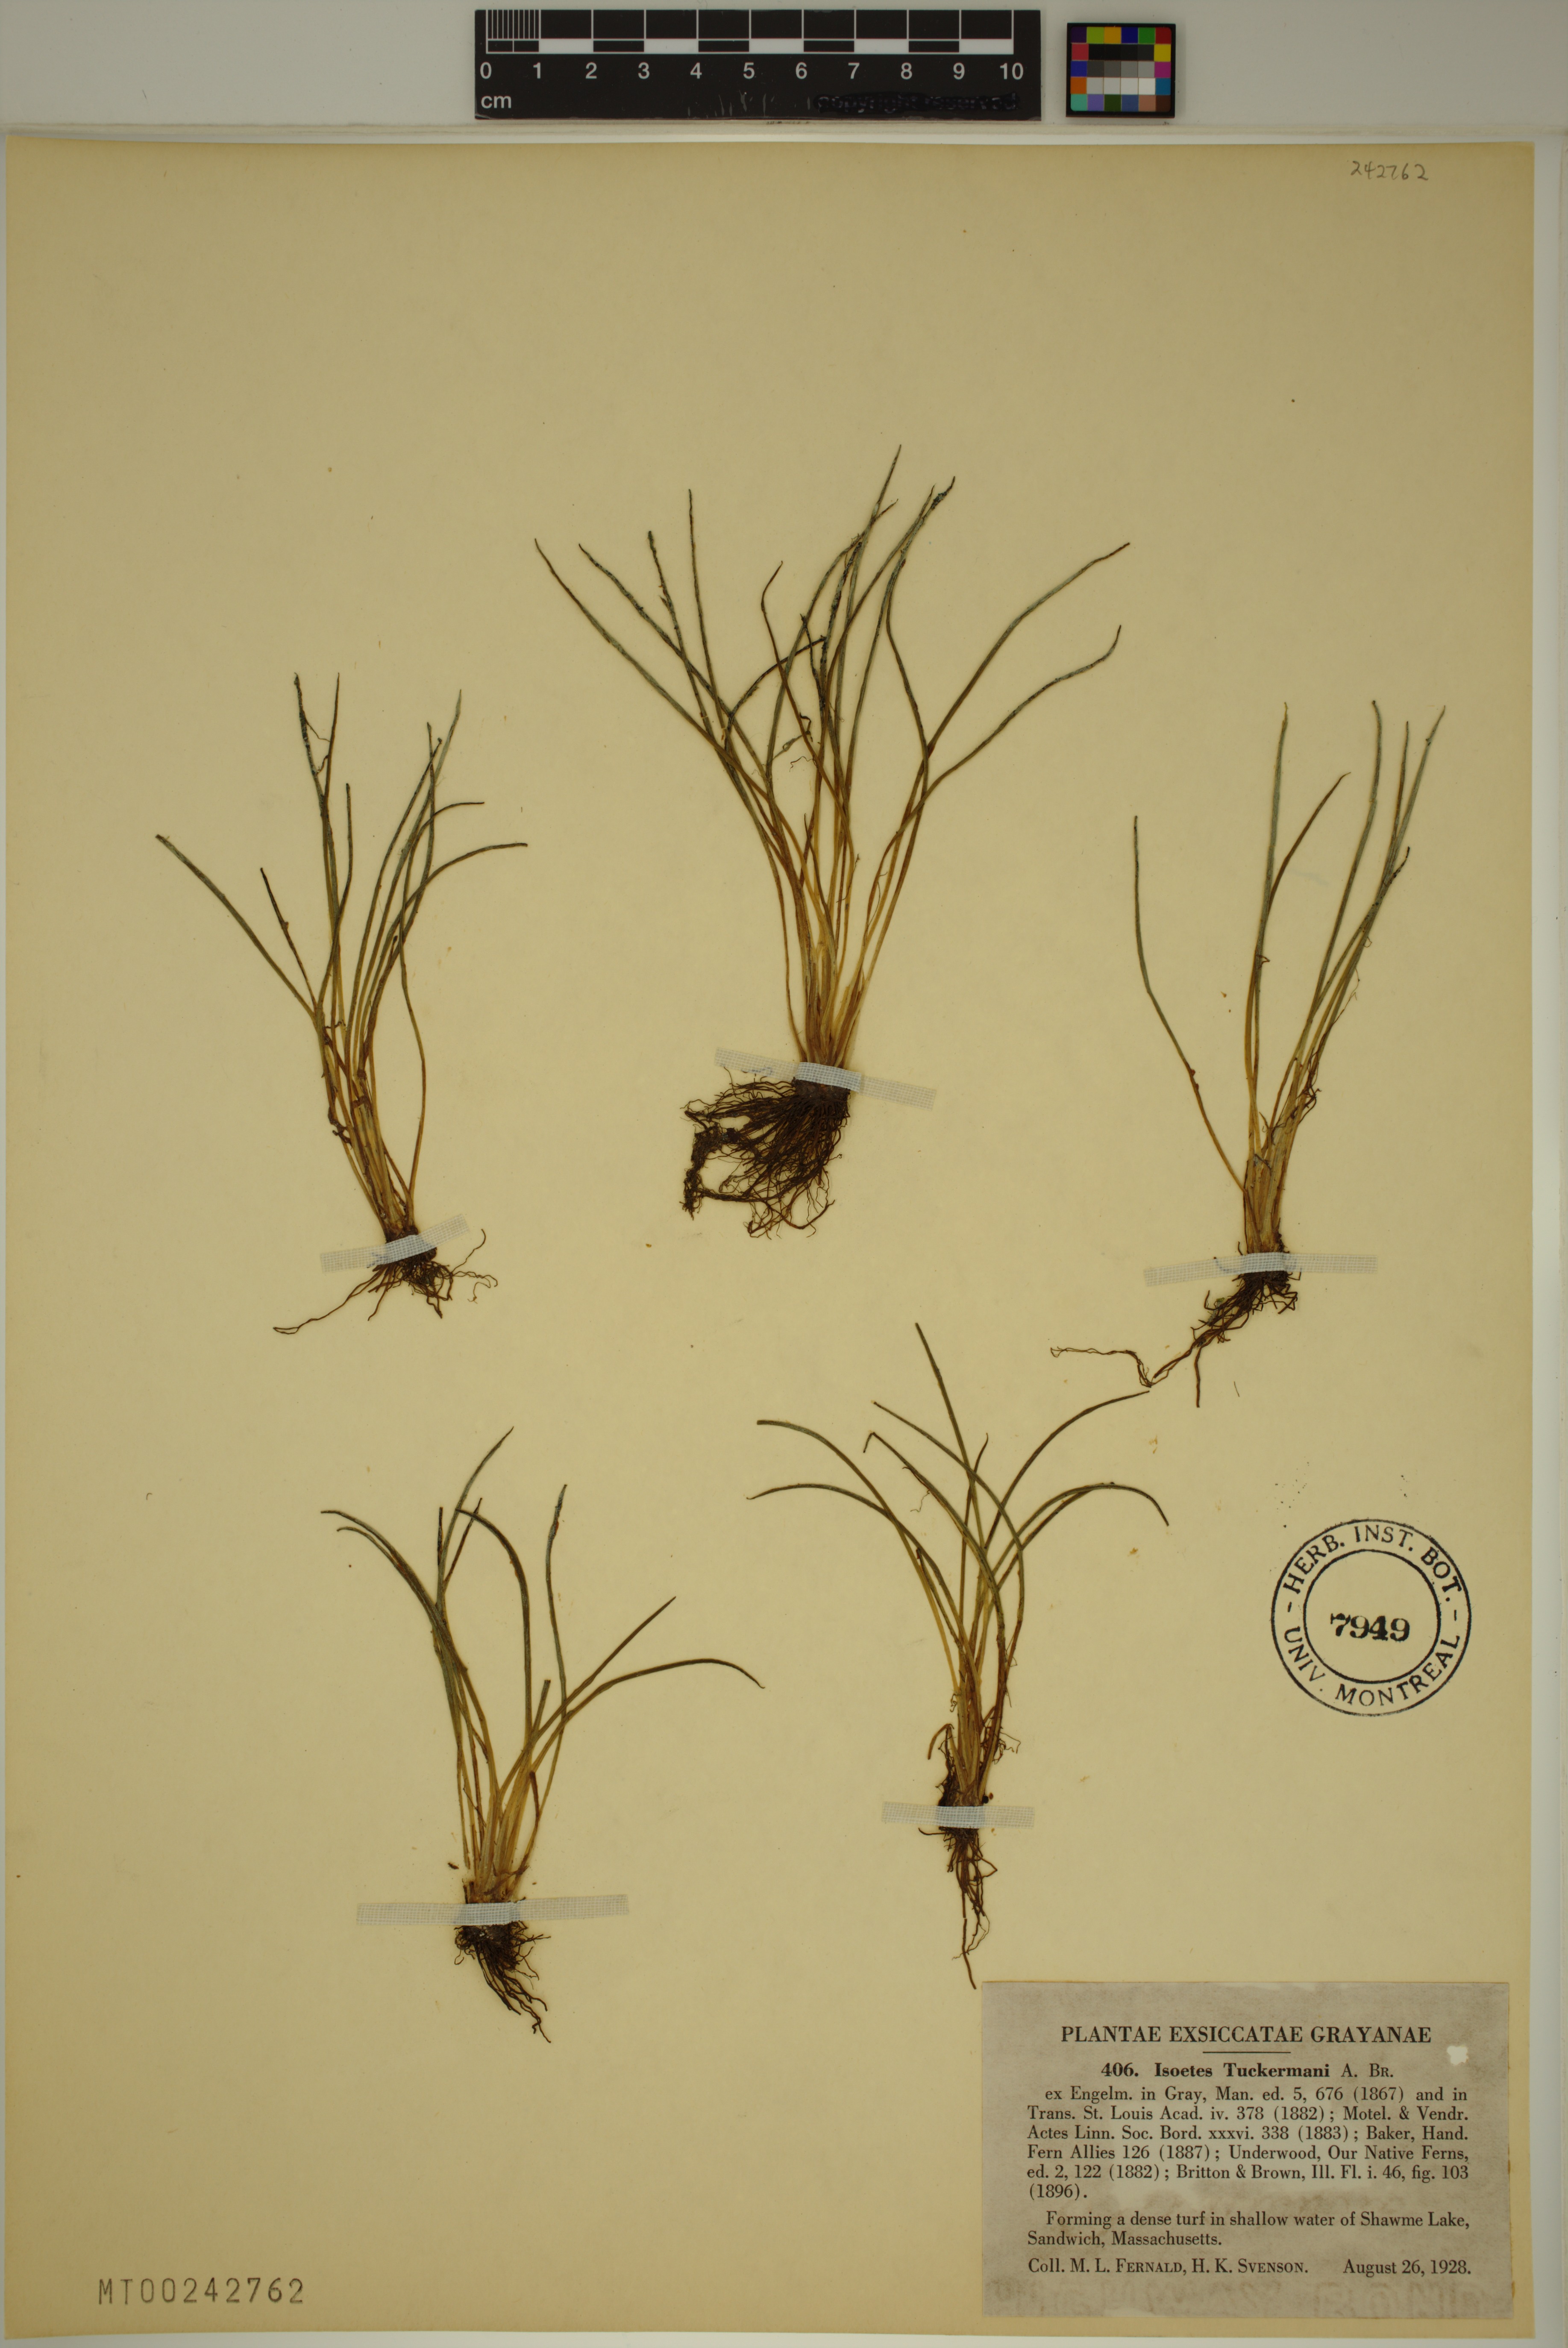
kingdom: Plantae
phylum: Tracheophyta
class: Lycopodiopsida
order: Isoetales
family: Isoetaceae
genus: Isoetes
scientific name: Isoetes tuckermanii
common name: Tuckerman's quillwort
